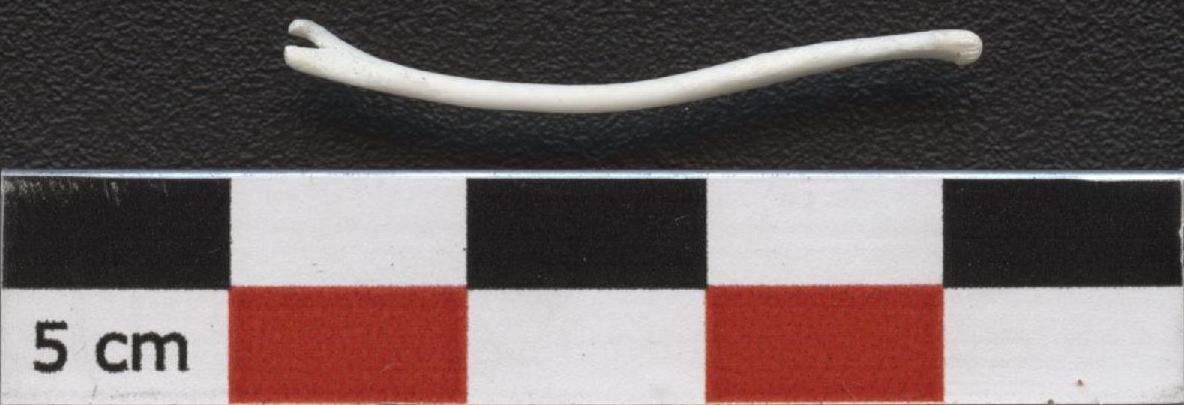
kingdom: Animalia
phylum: Chordata
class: Mammalia
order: Carnivora
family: Mustelidae
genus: Martes
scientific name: Martes foina
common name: Beech marten
